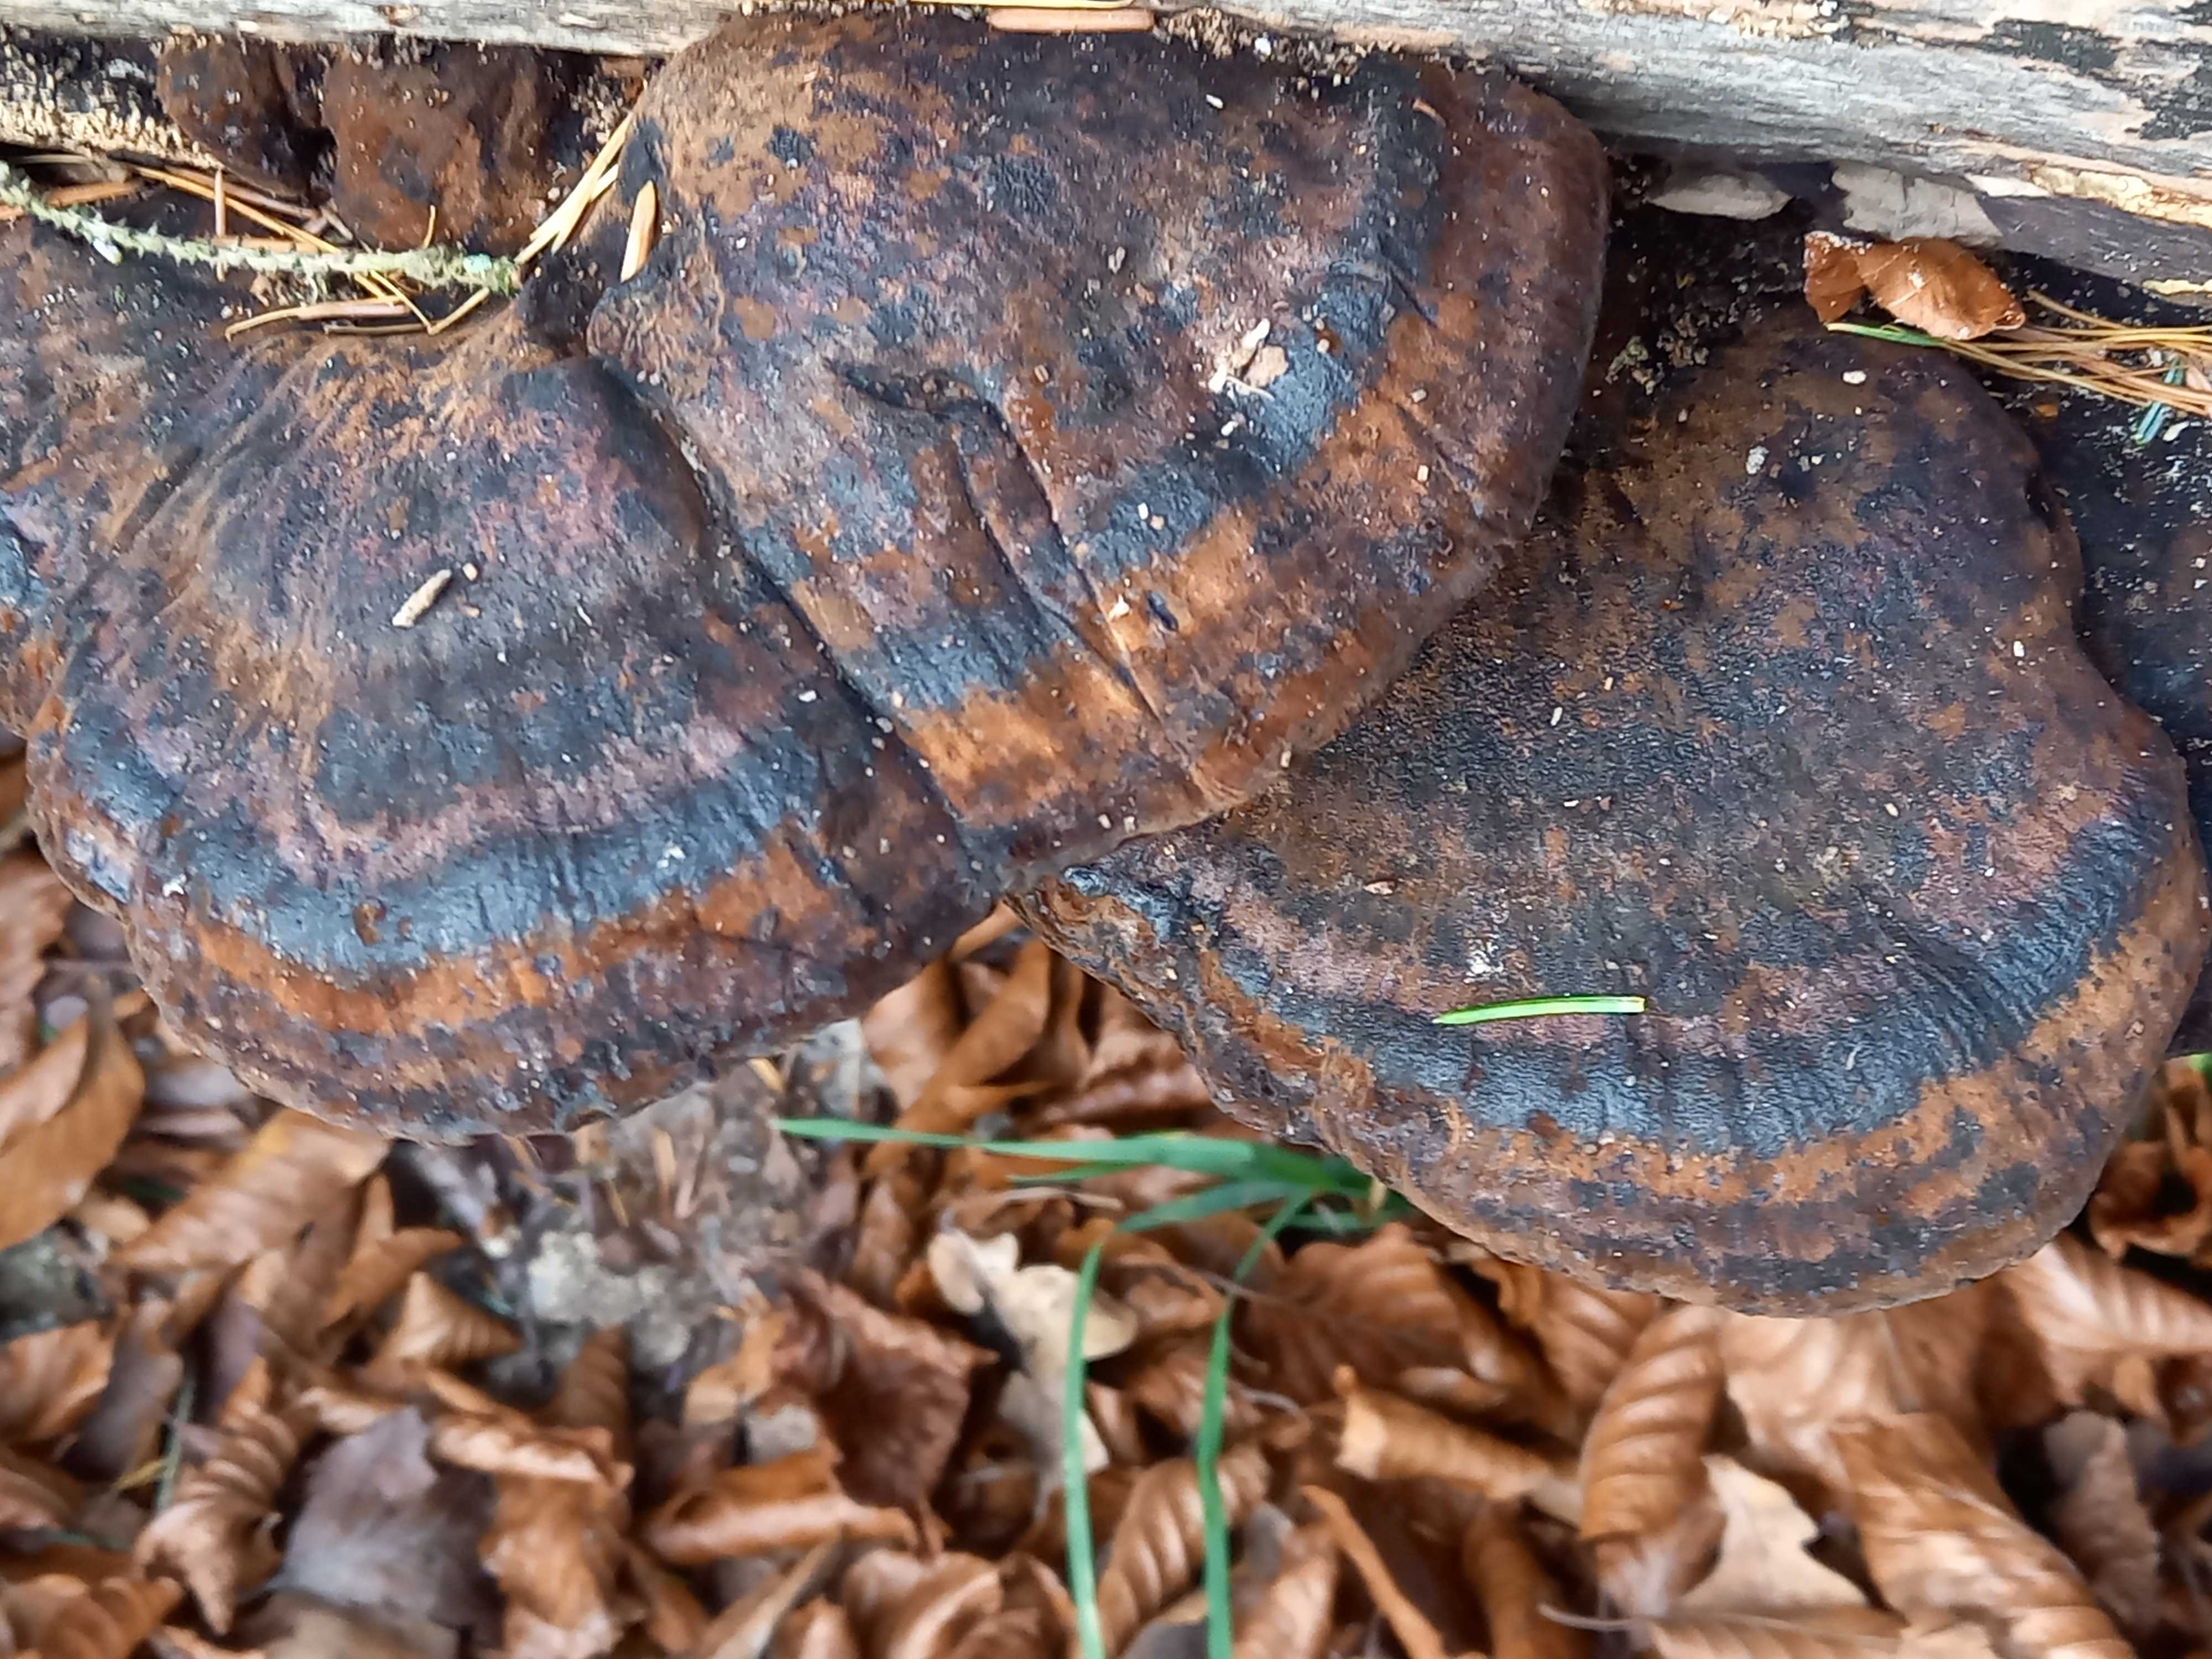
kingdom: Fungi
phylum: Basidiomycota
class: Agaricomycetes
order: Polyporales
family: Ischnodermataceae
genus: Ischnoderma
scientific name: Ischnoderma resinosum
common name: løv-tjæreporesvamp
